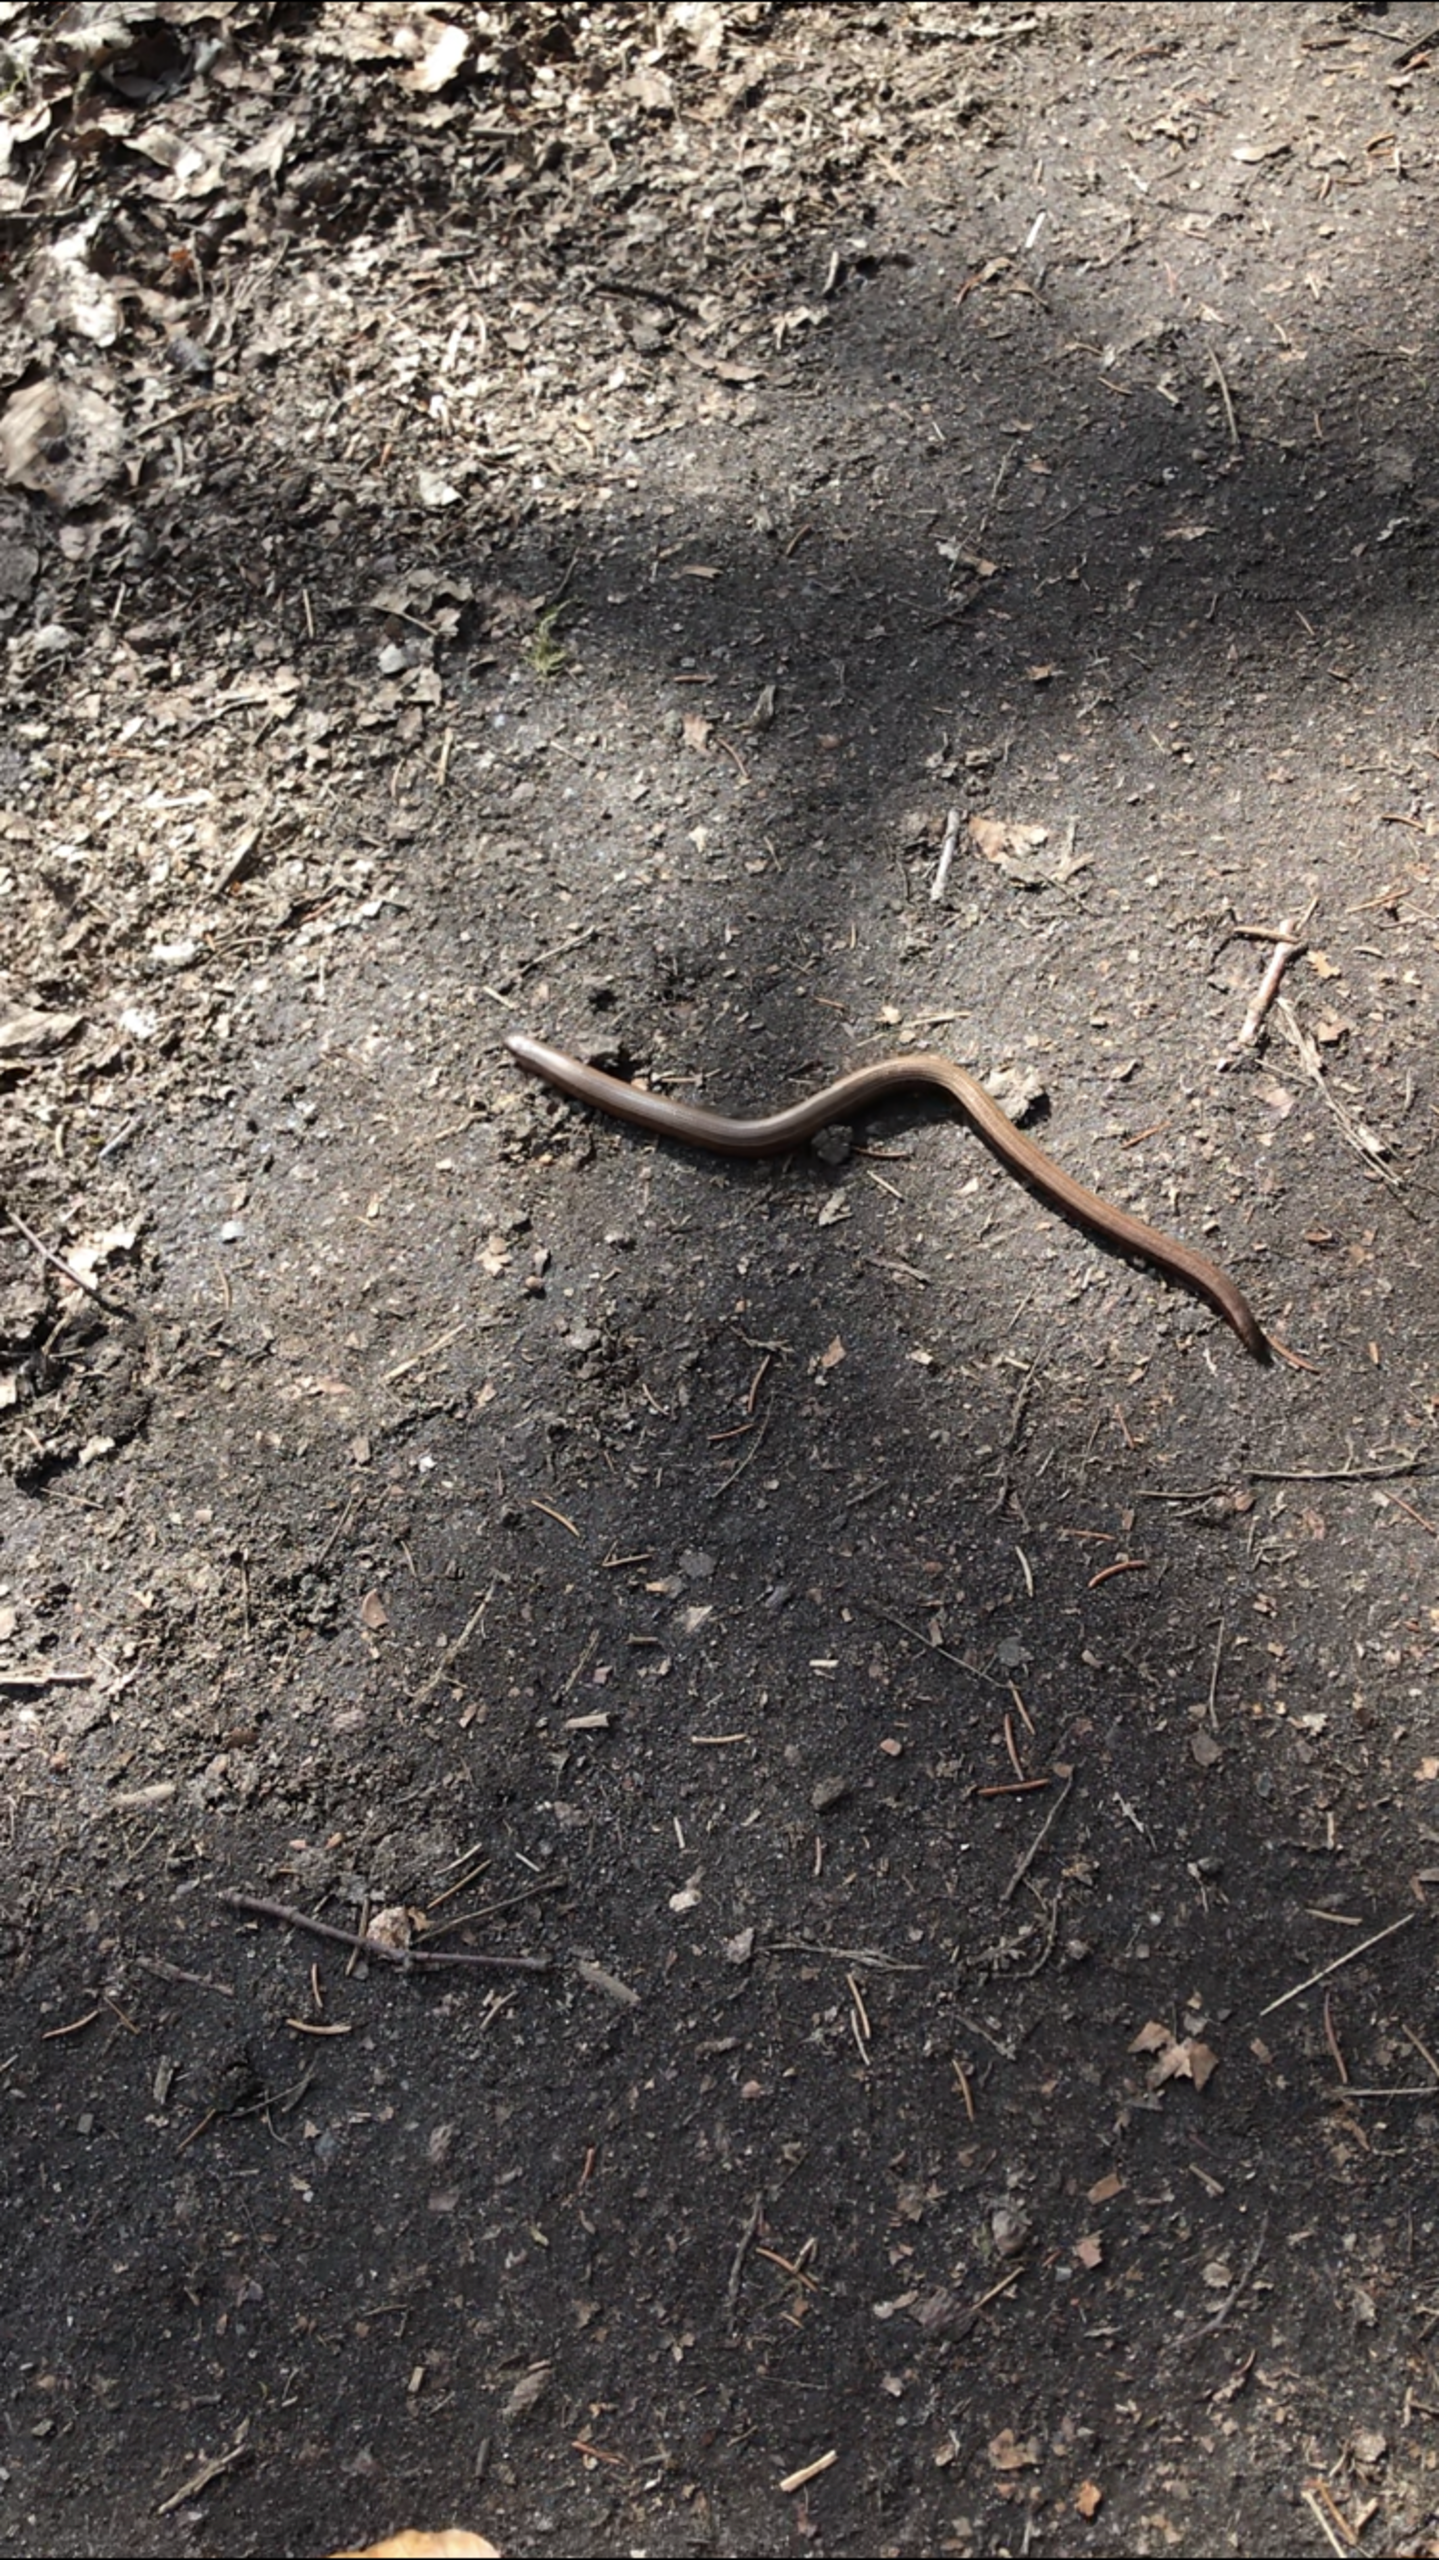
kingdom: Animalia
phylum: Chordata
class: Squamata
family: Anguidae
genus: Anguis
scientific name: Anguis fragilis
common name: Stålorm
